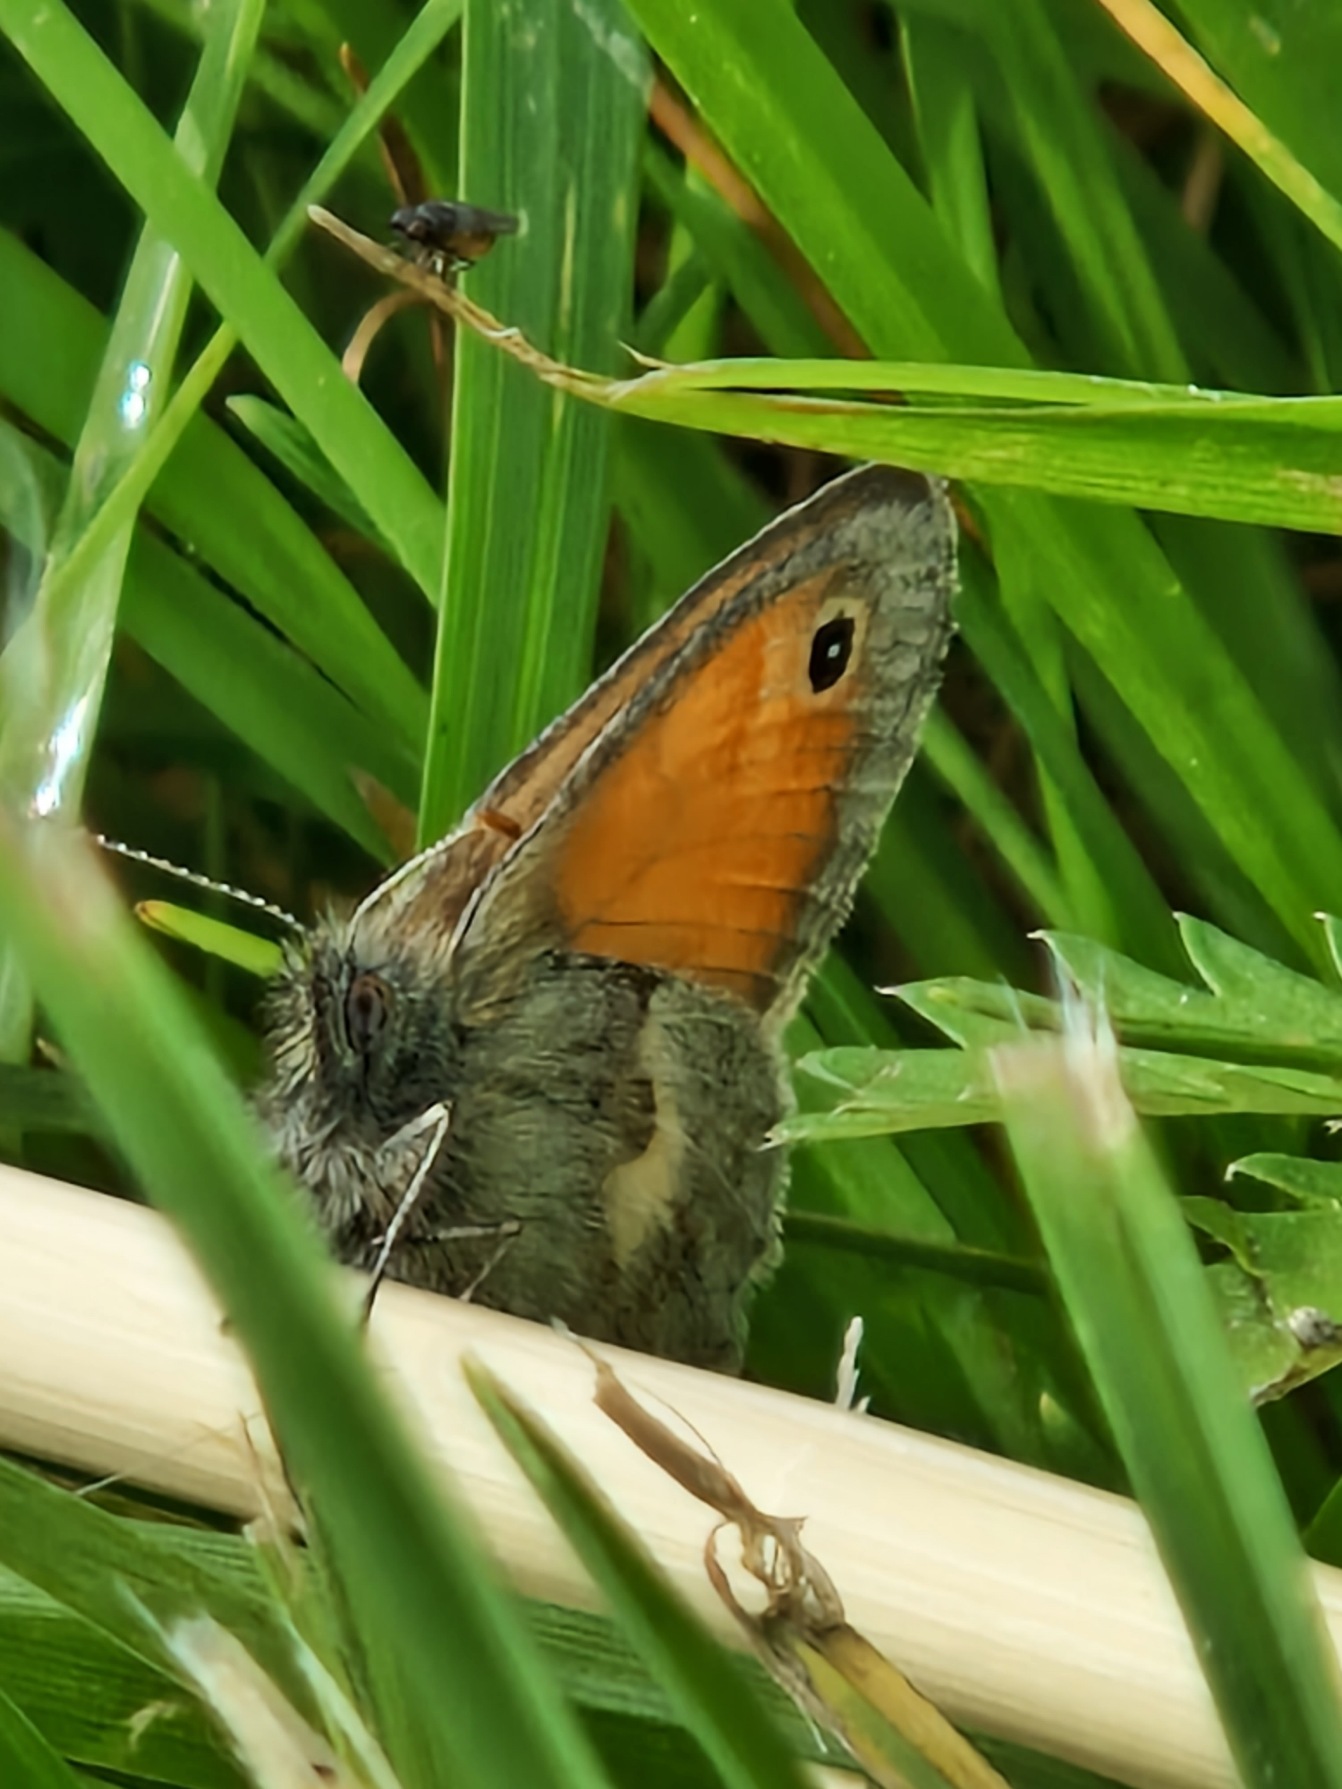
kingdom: Animalia
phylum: Arthropoda
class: Insecta
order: Lepidoptera
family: Nymphalidae
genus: Coenonympha
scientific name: Coenonympha pamphilus
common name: Okkergul randøje
